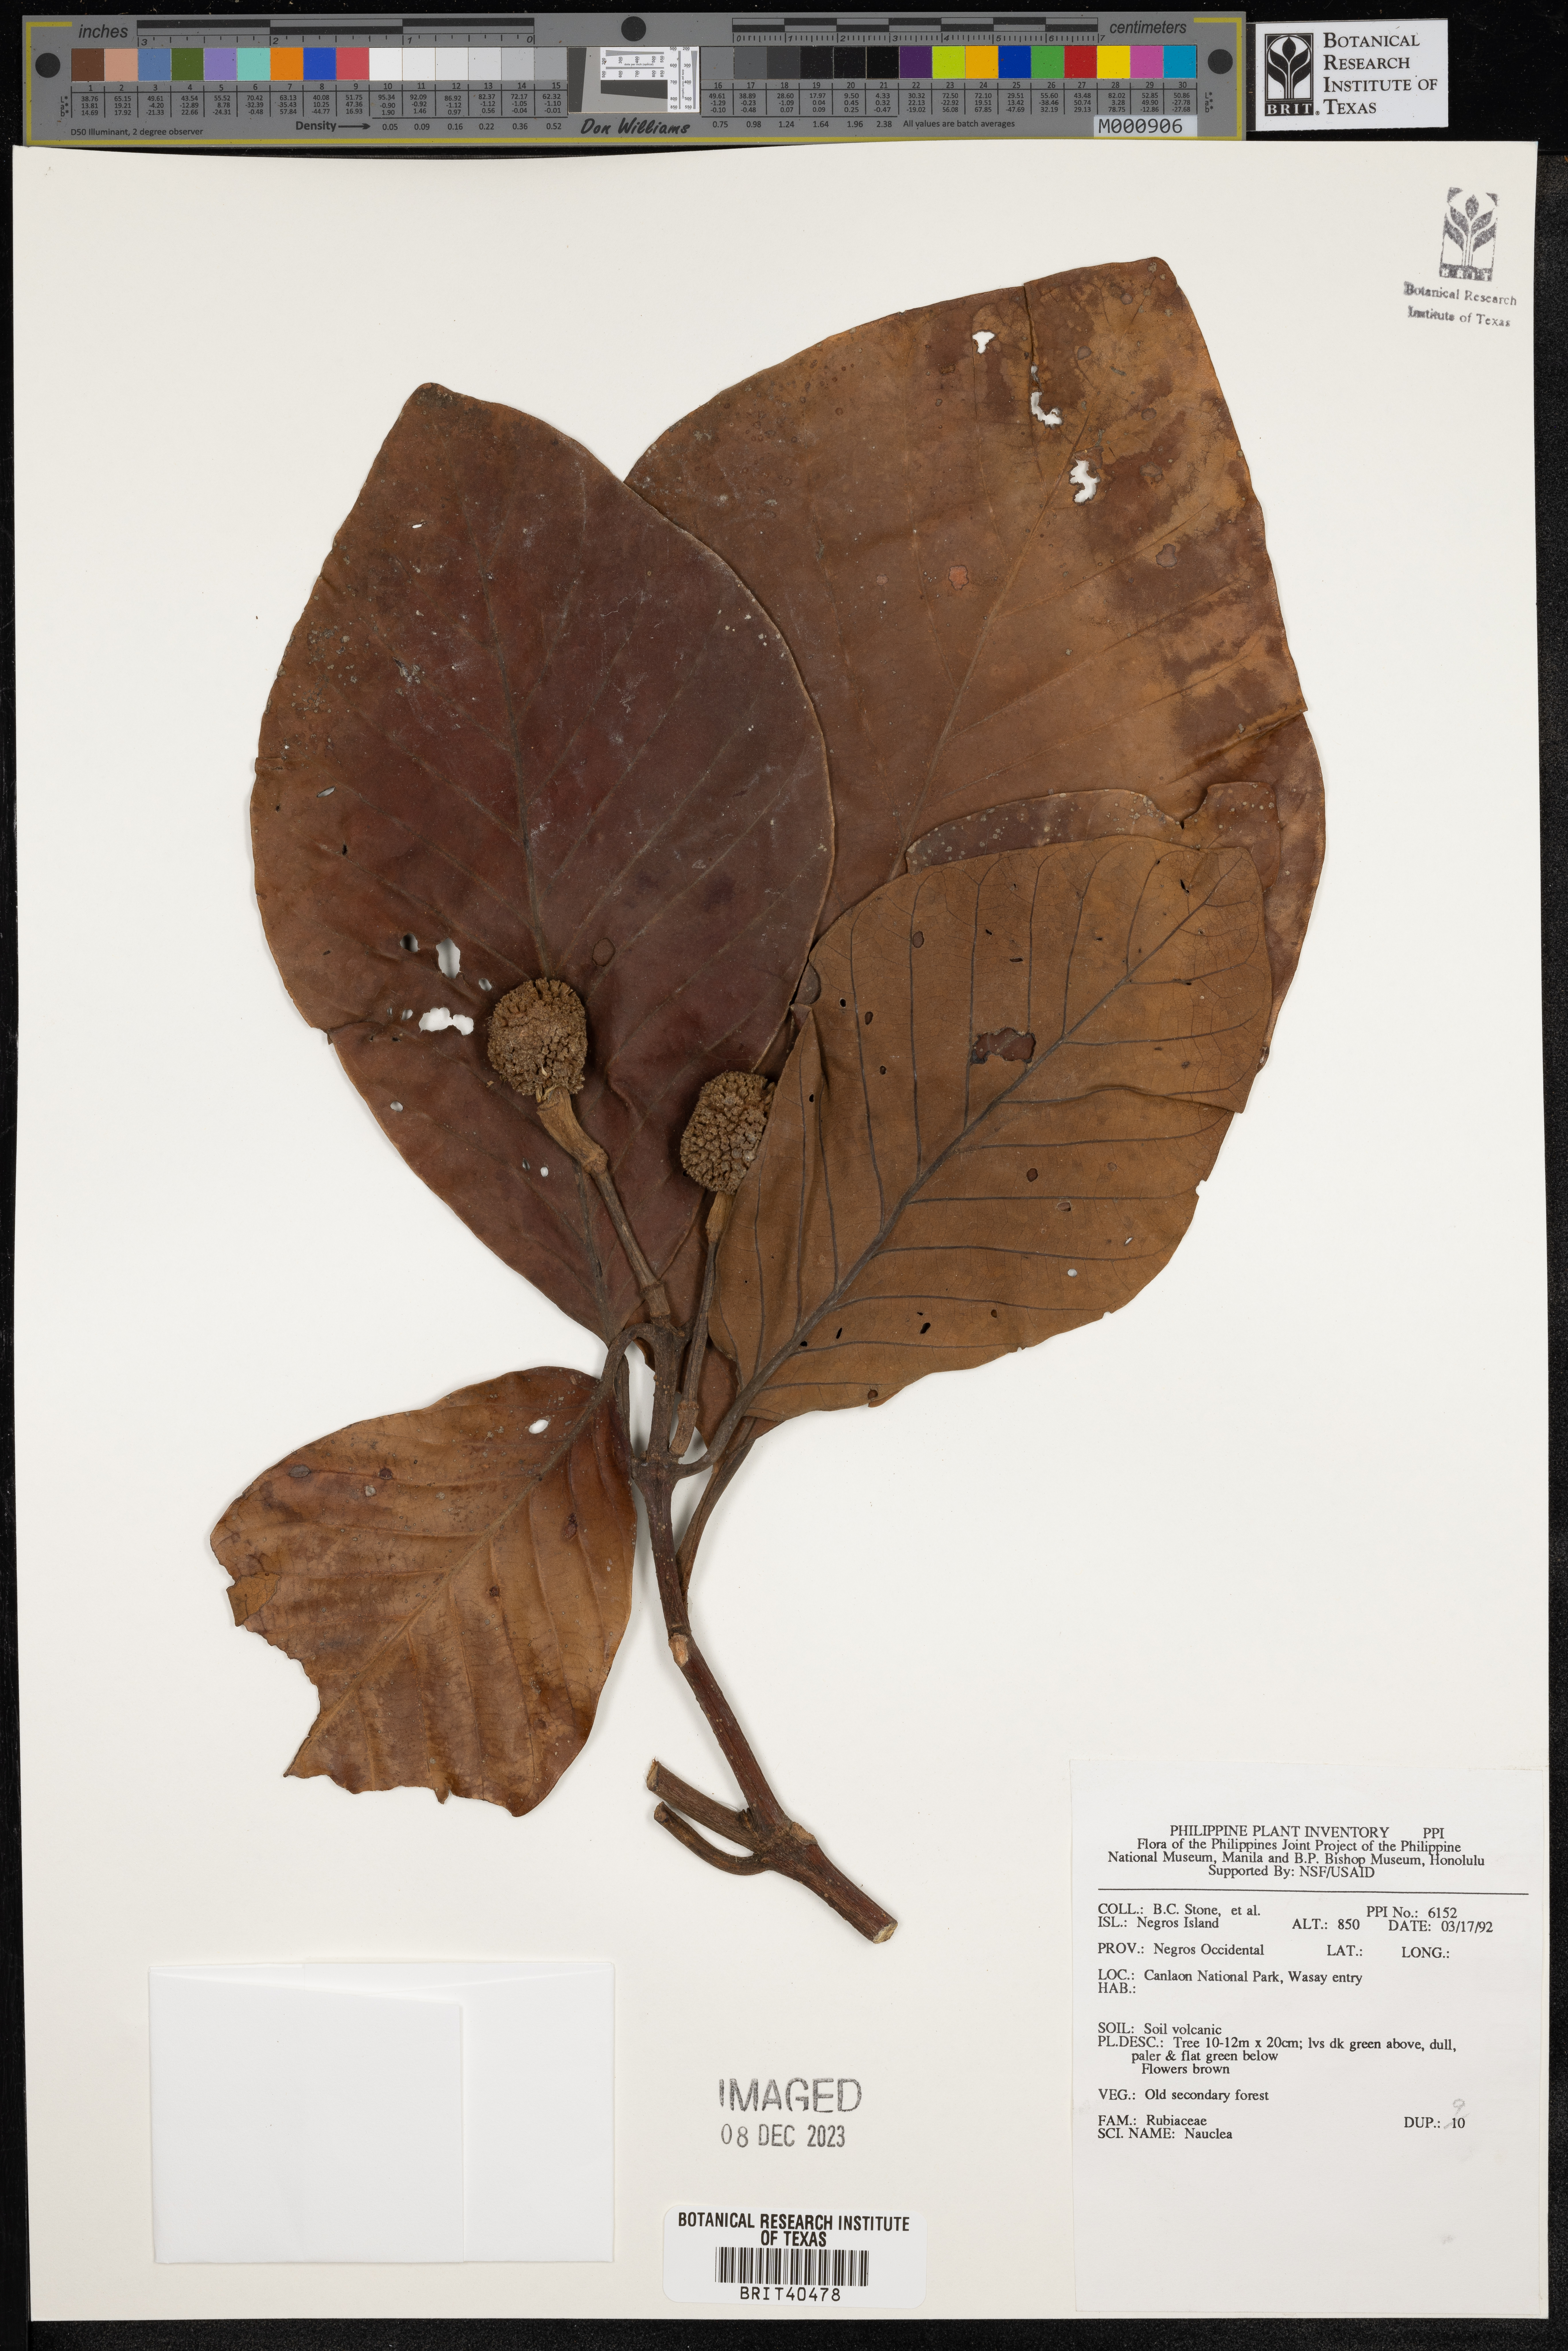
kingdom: Plantae
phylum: Tracheophyta
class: Magnoliopsida
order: Gentianales
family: Rubiaceae
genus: Nauclea
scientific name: Nauclea
